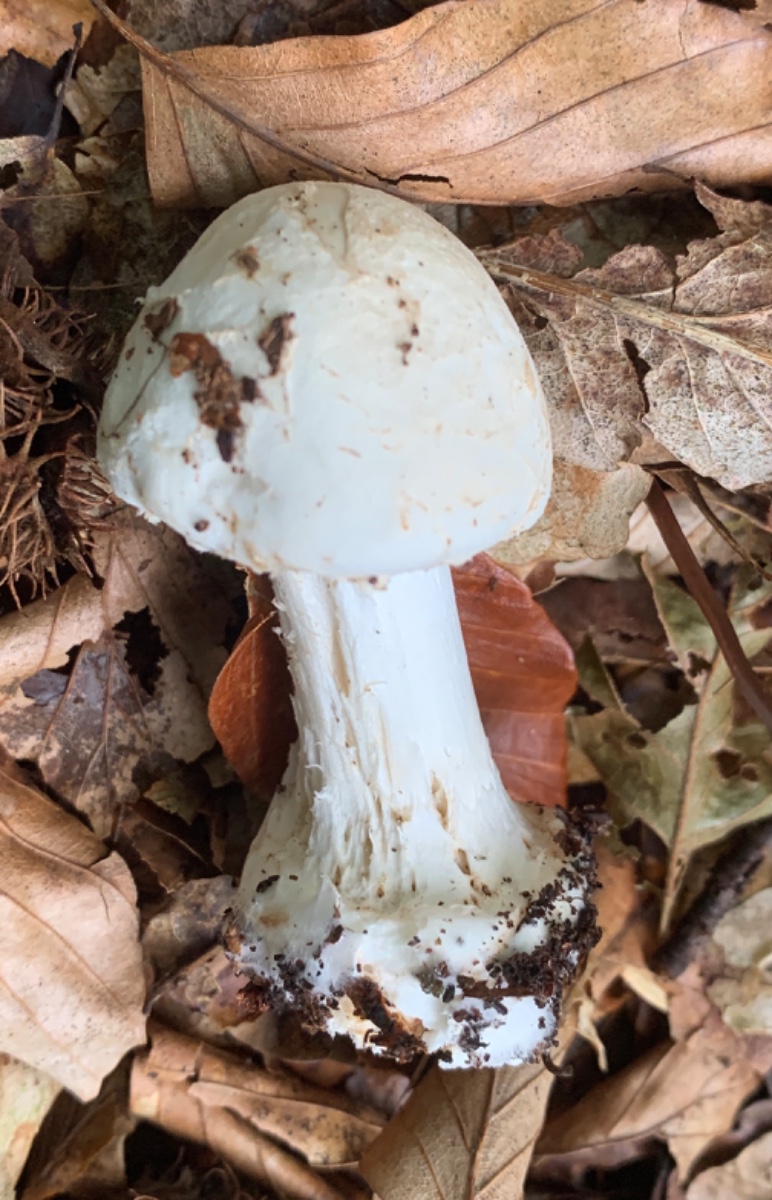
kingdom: Fungi
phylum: Basidiomycota
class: Agaricomycetes
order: Agaricales
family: Amanitaceae
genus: Amanita
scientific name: Amanita citrina
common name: kugleknoldet fluesvamp
